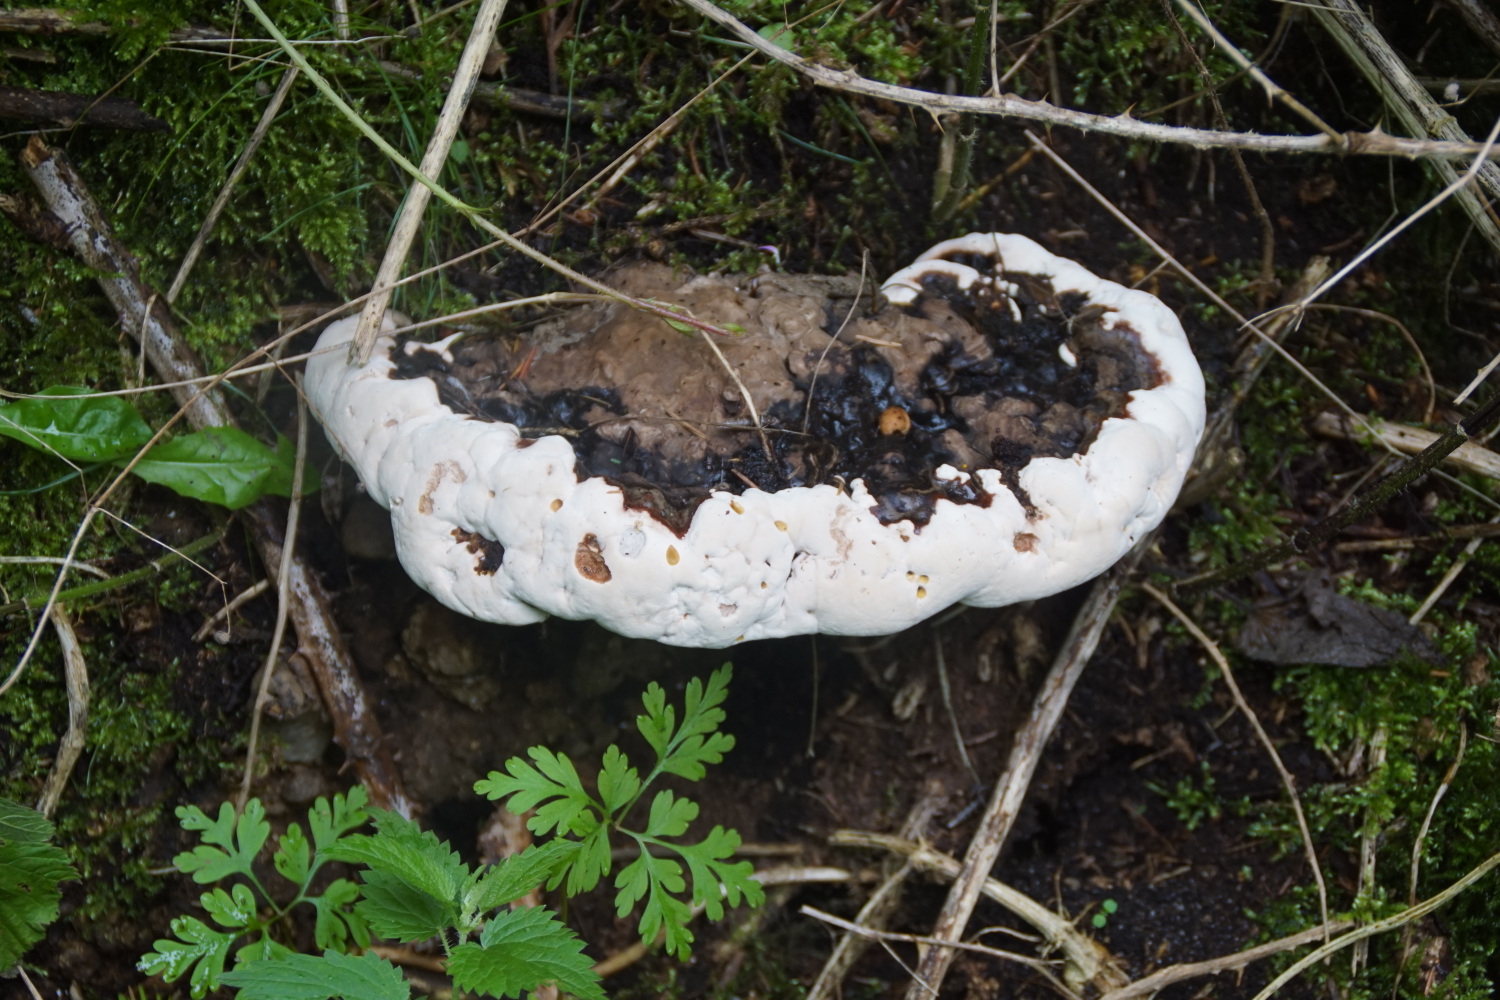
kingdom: Fungi
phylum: Basidiomycota
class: Agaricomycetes
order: Polyporales
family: Polyporaceae
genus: Ganoderma
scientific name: Ganoderma applanatum
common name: flad lakporesvamp
